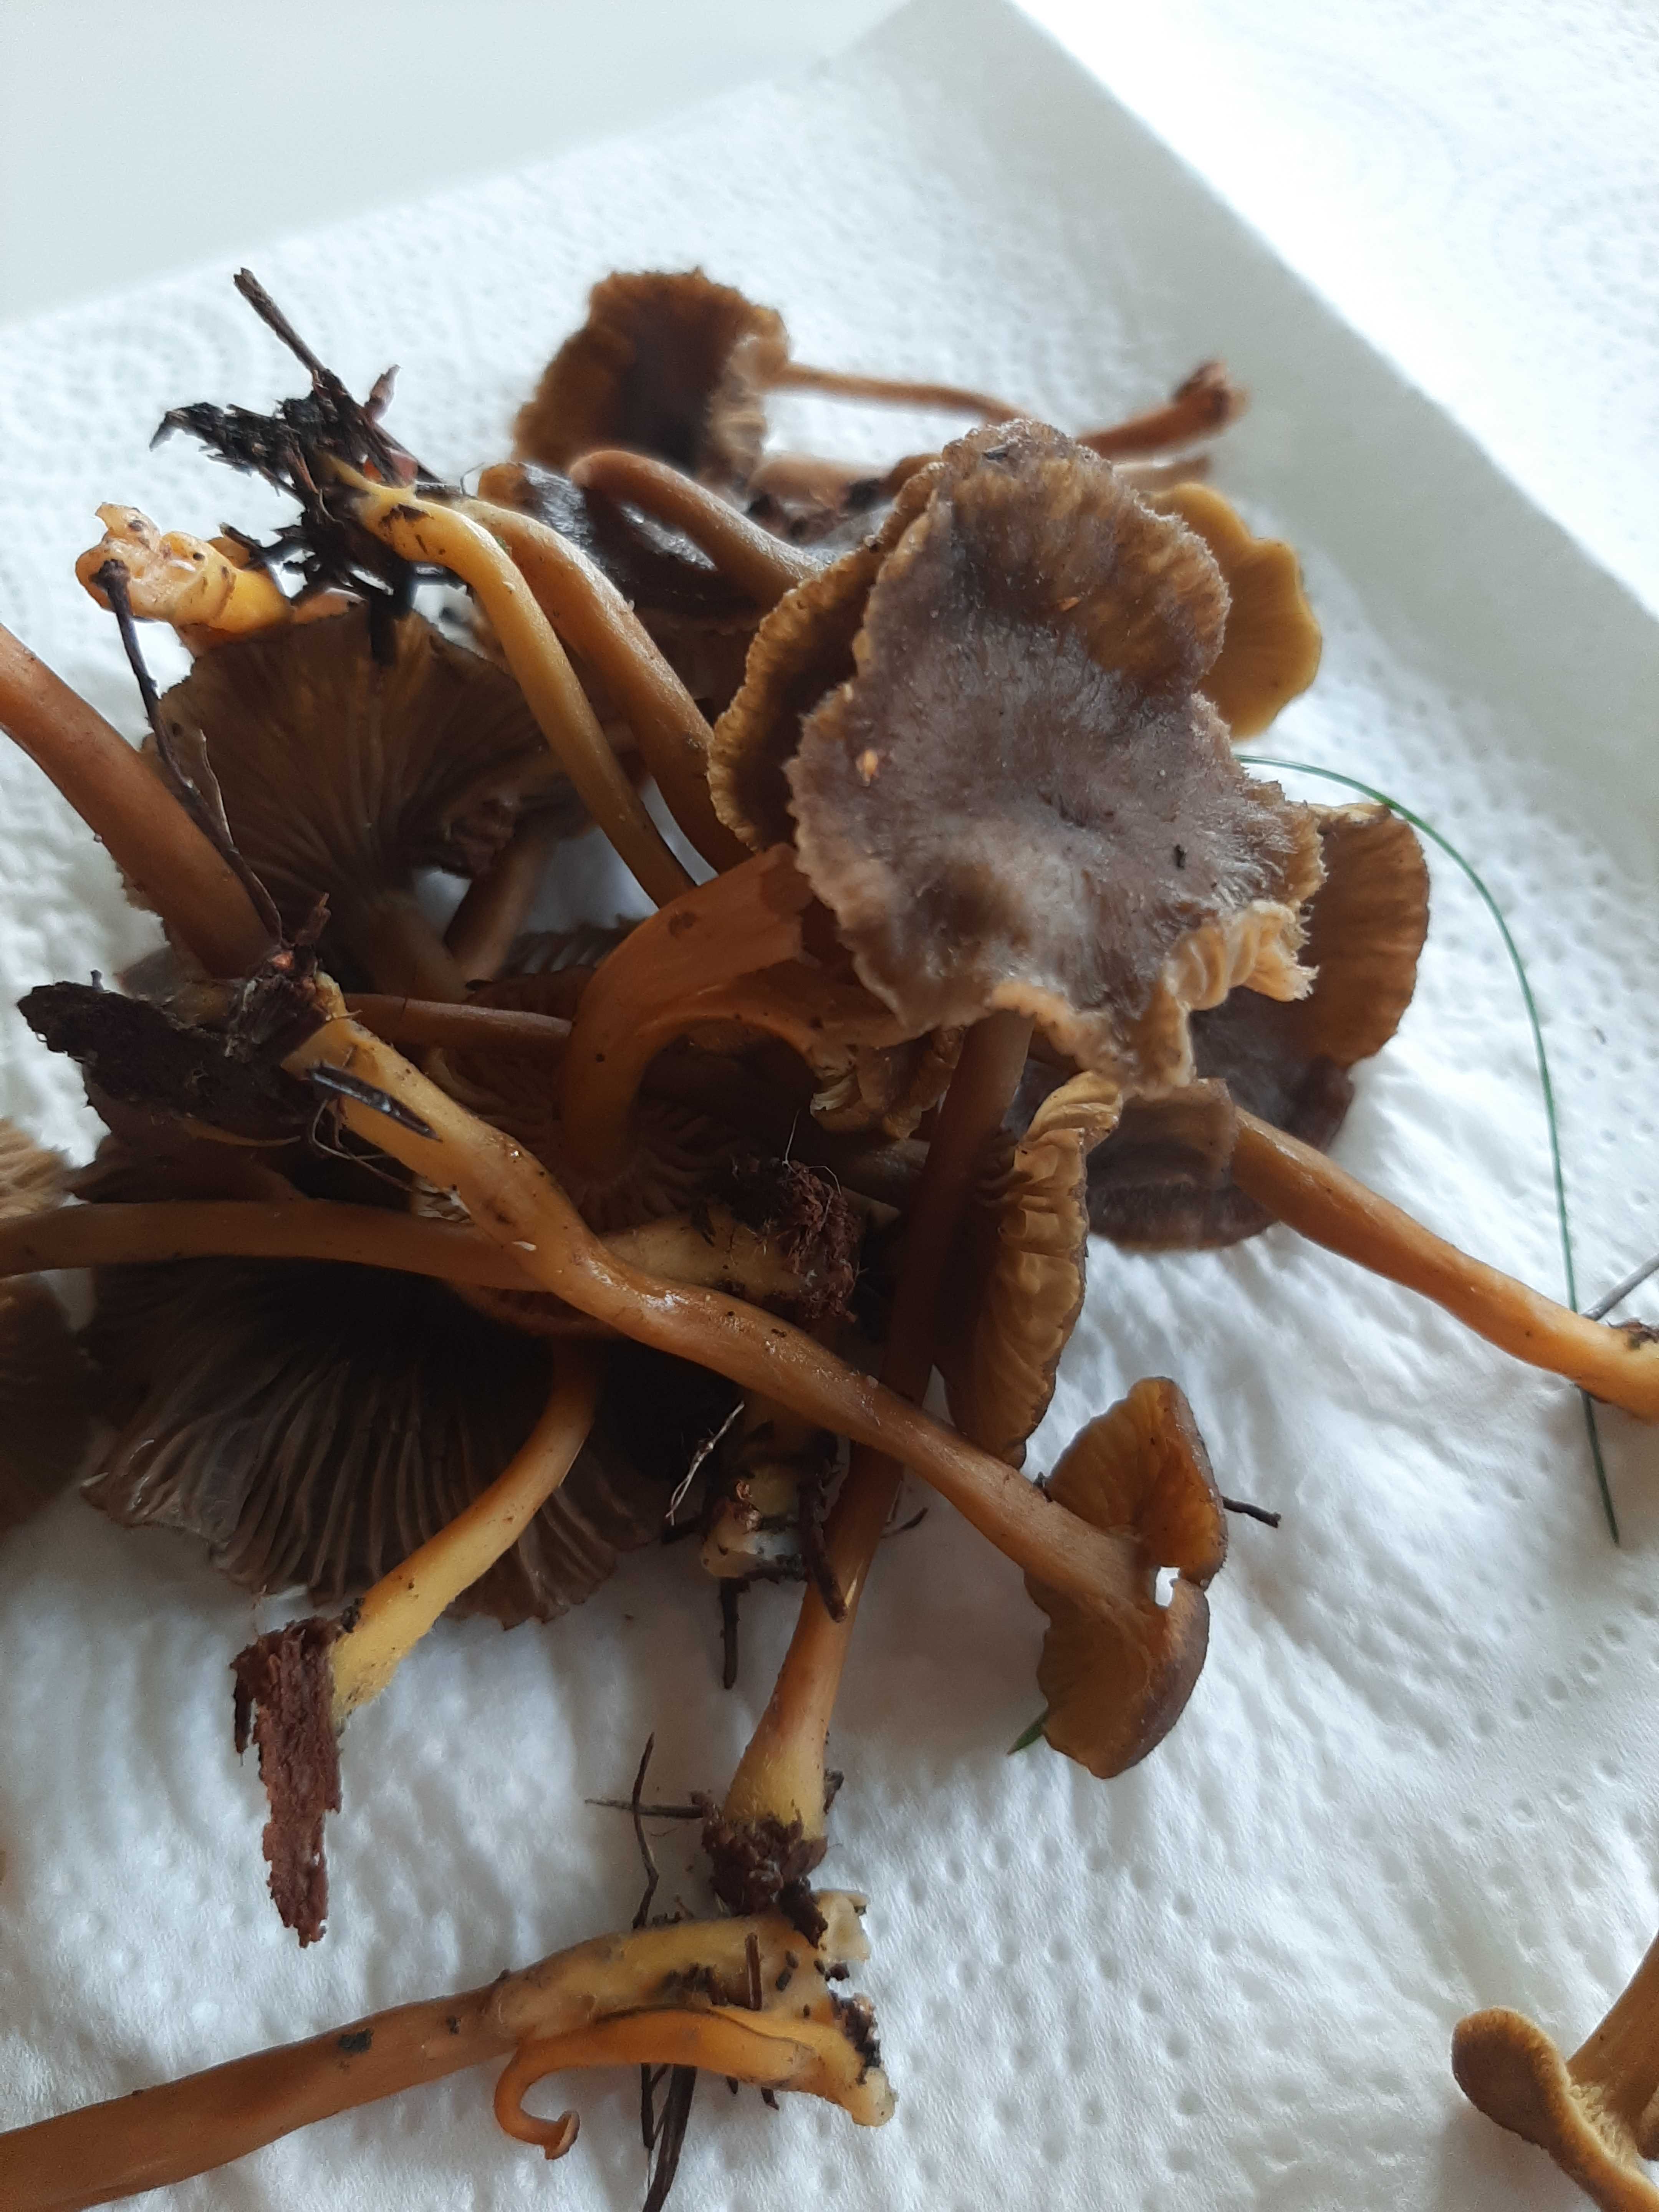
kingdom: Fungi
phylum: Basidiomycota
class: Agaricomycetes
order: Cantharellales
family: Hydnaceae
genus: Craterellus
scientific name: Craterellus tubaeformis
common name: tragt-kantarel
